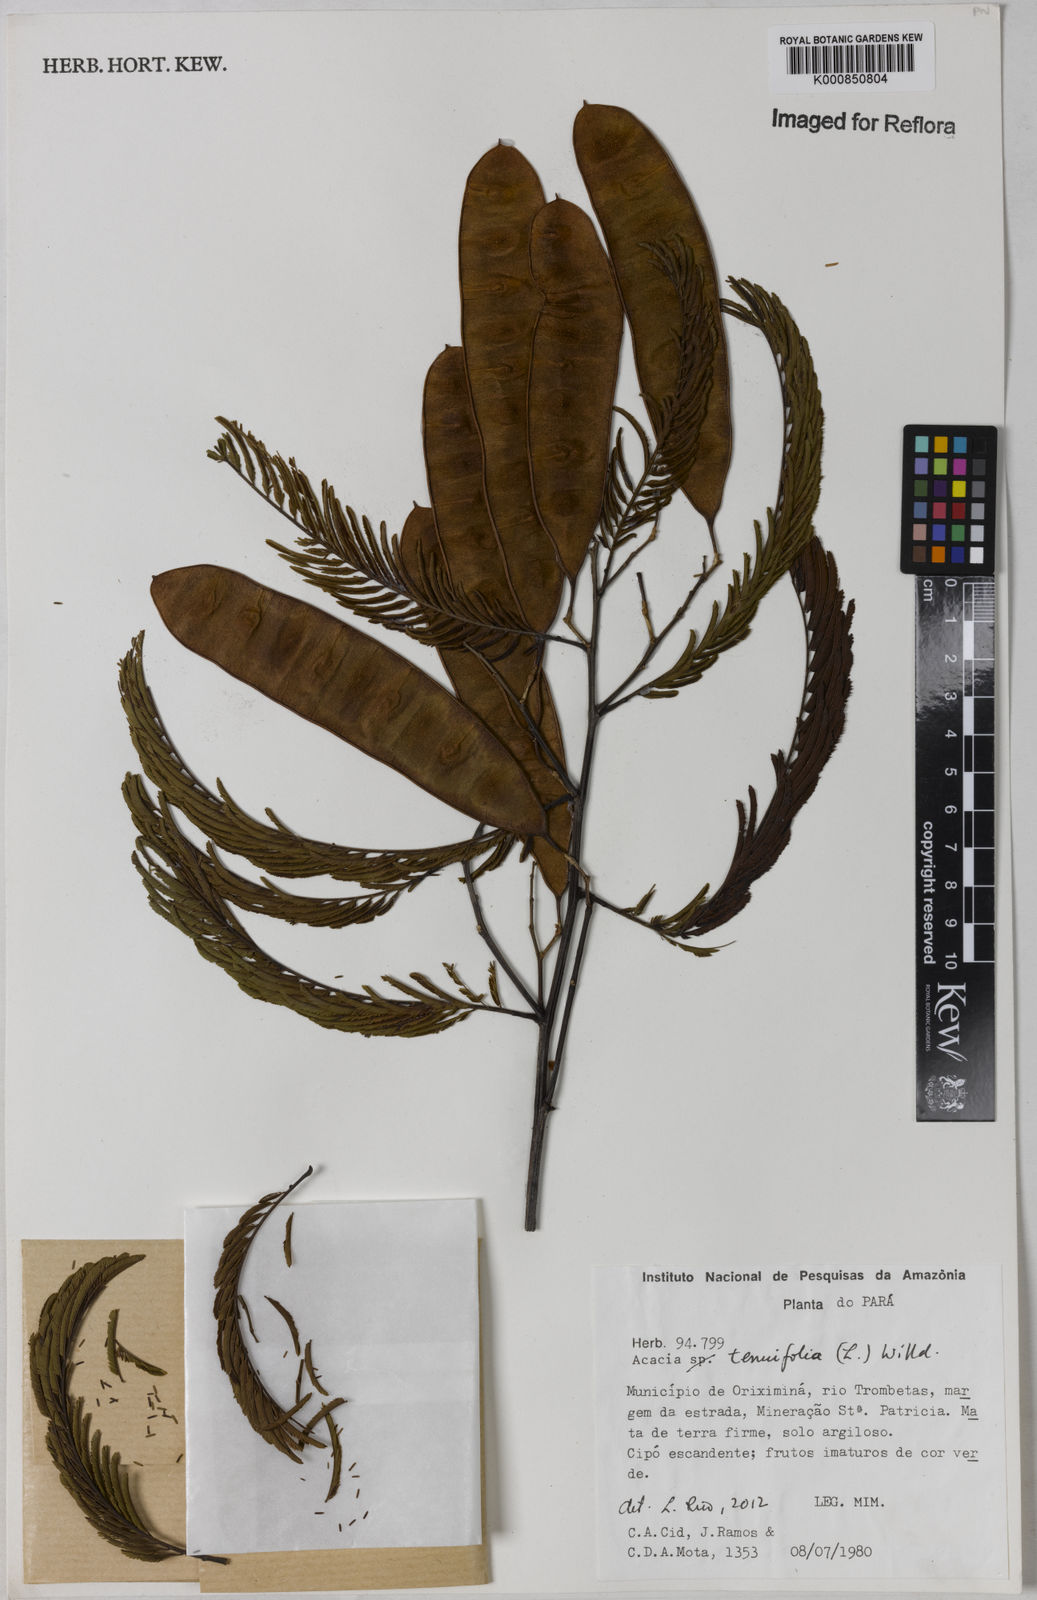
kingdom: Plantae
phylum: Tracheophyta
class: Magnoliopsida
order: Fabales
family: Fabaceae
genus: Senegalia
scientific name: Senegalia tenuifolia
